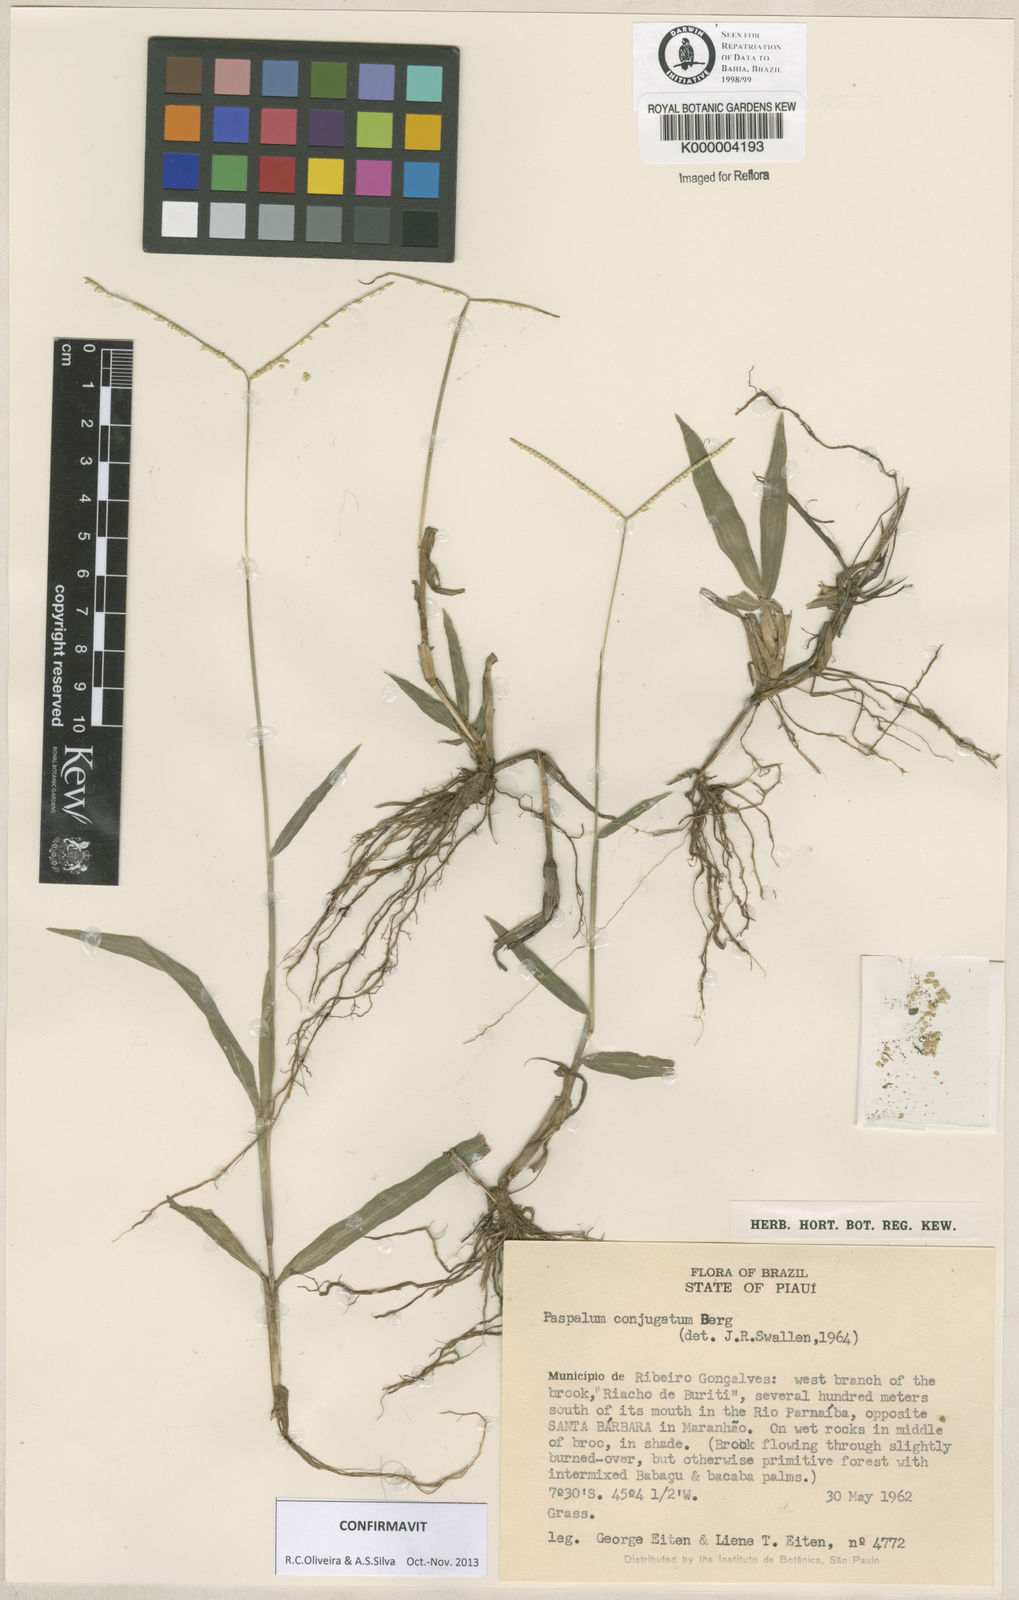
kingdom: Plantae
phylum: Tracheophyta
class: Liliopsida
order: Poales
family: Poaceae
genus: Paspalum
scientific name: Paspalum conjugatum
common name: Hilograss
